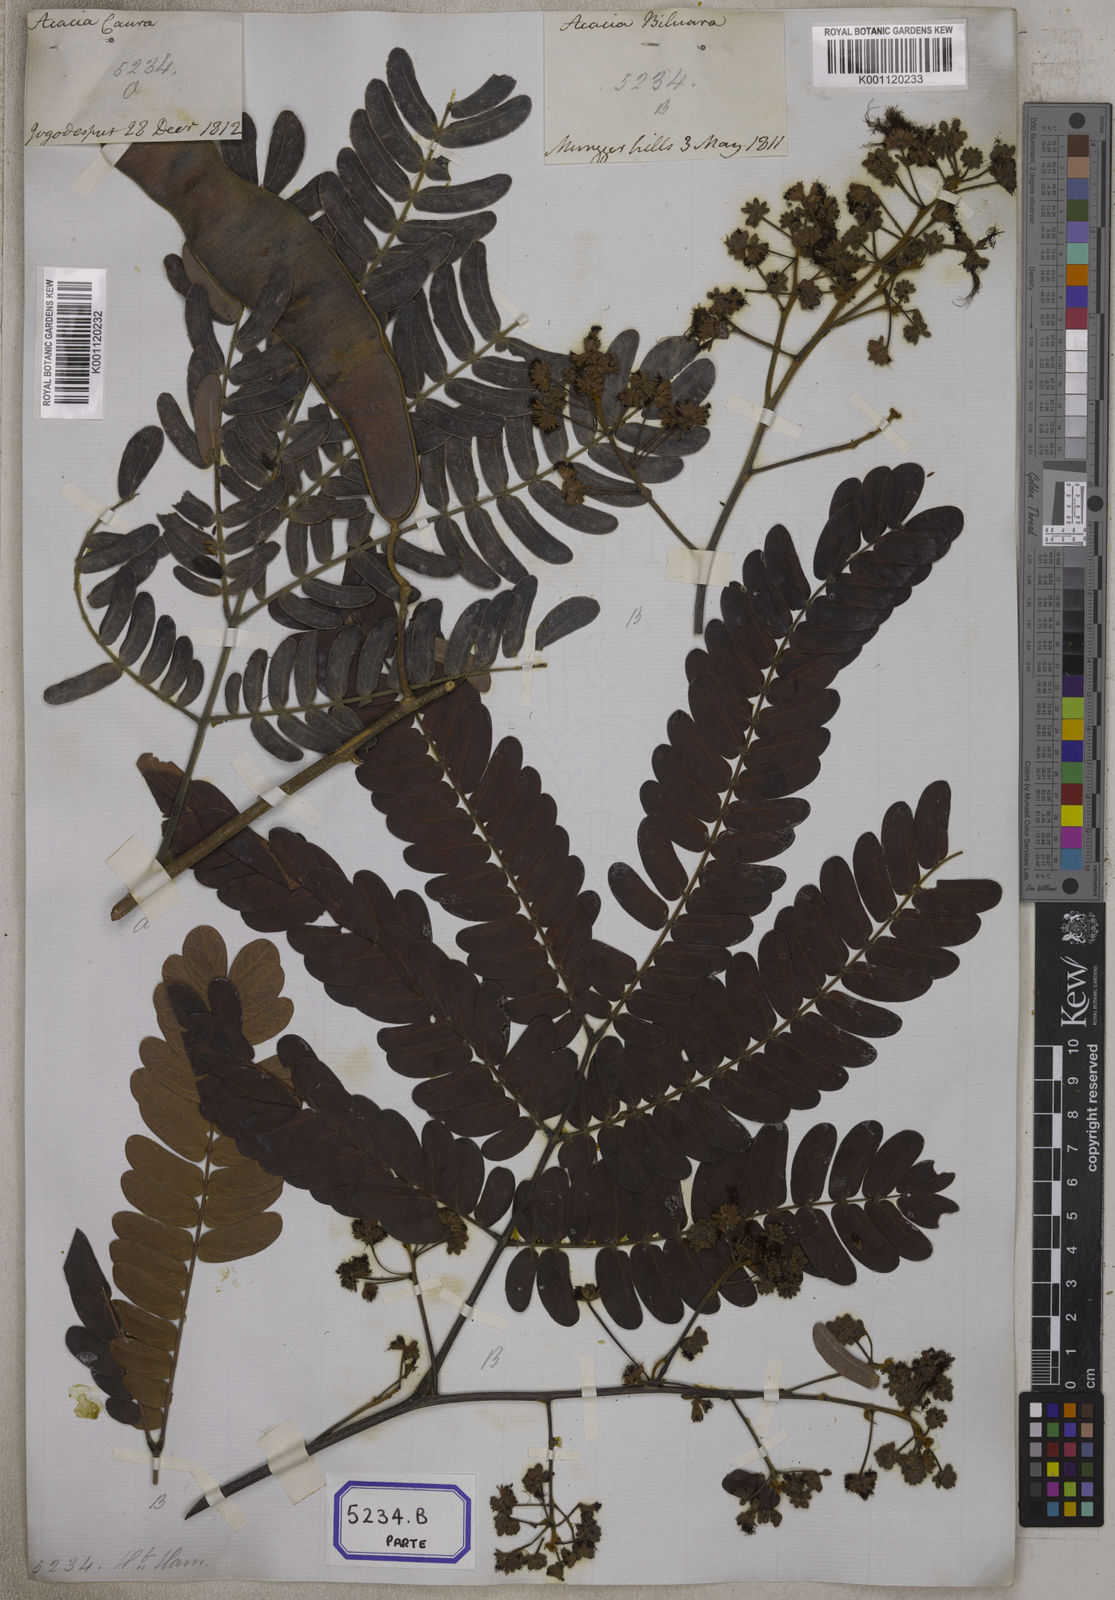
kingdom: Plantae
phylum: Tracheophyta
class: Magnoliopsida
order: Fabales
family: Fabaceae
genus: Albizia
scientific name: Albizia odoratissima
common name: Ceylon rosewood
